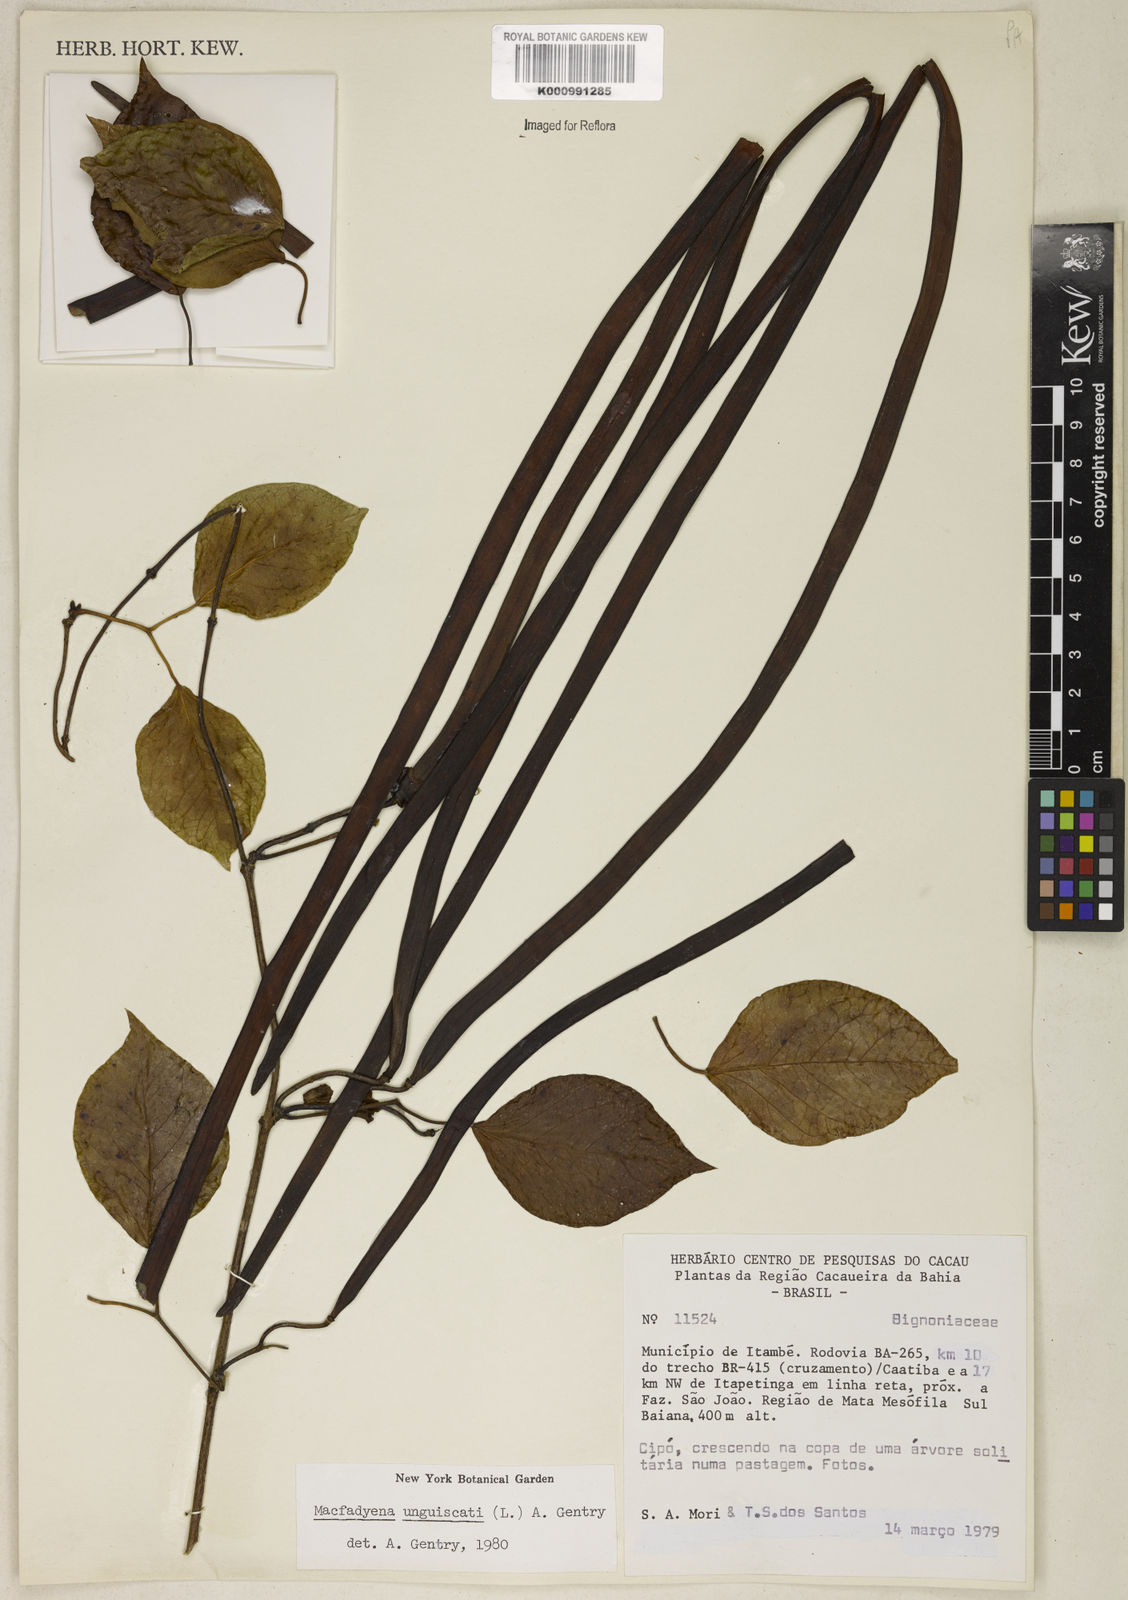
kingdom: Plantae
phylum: Tracheophyta
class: Magnoliopsida
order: Lamiales
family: Bignoniaceae
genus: Dolichandra
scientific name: Dolichandra unguis-cati
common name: Catclaw vine
